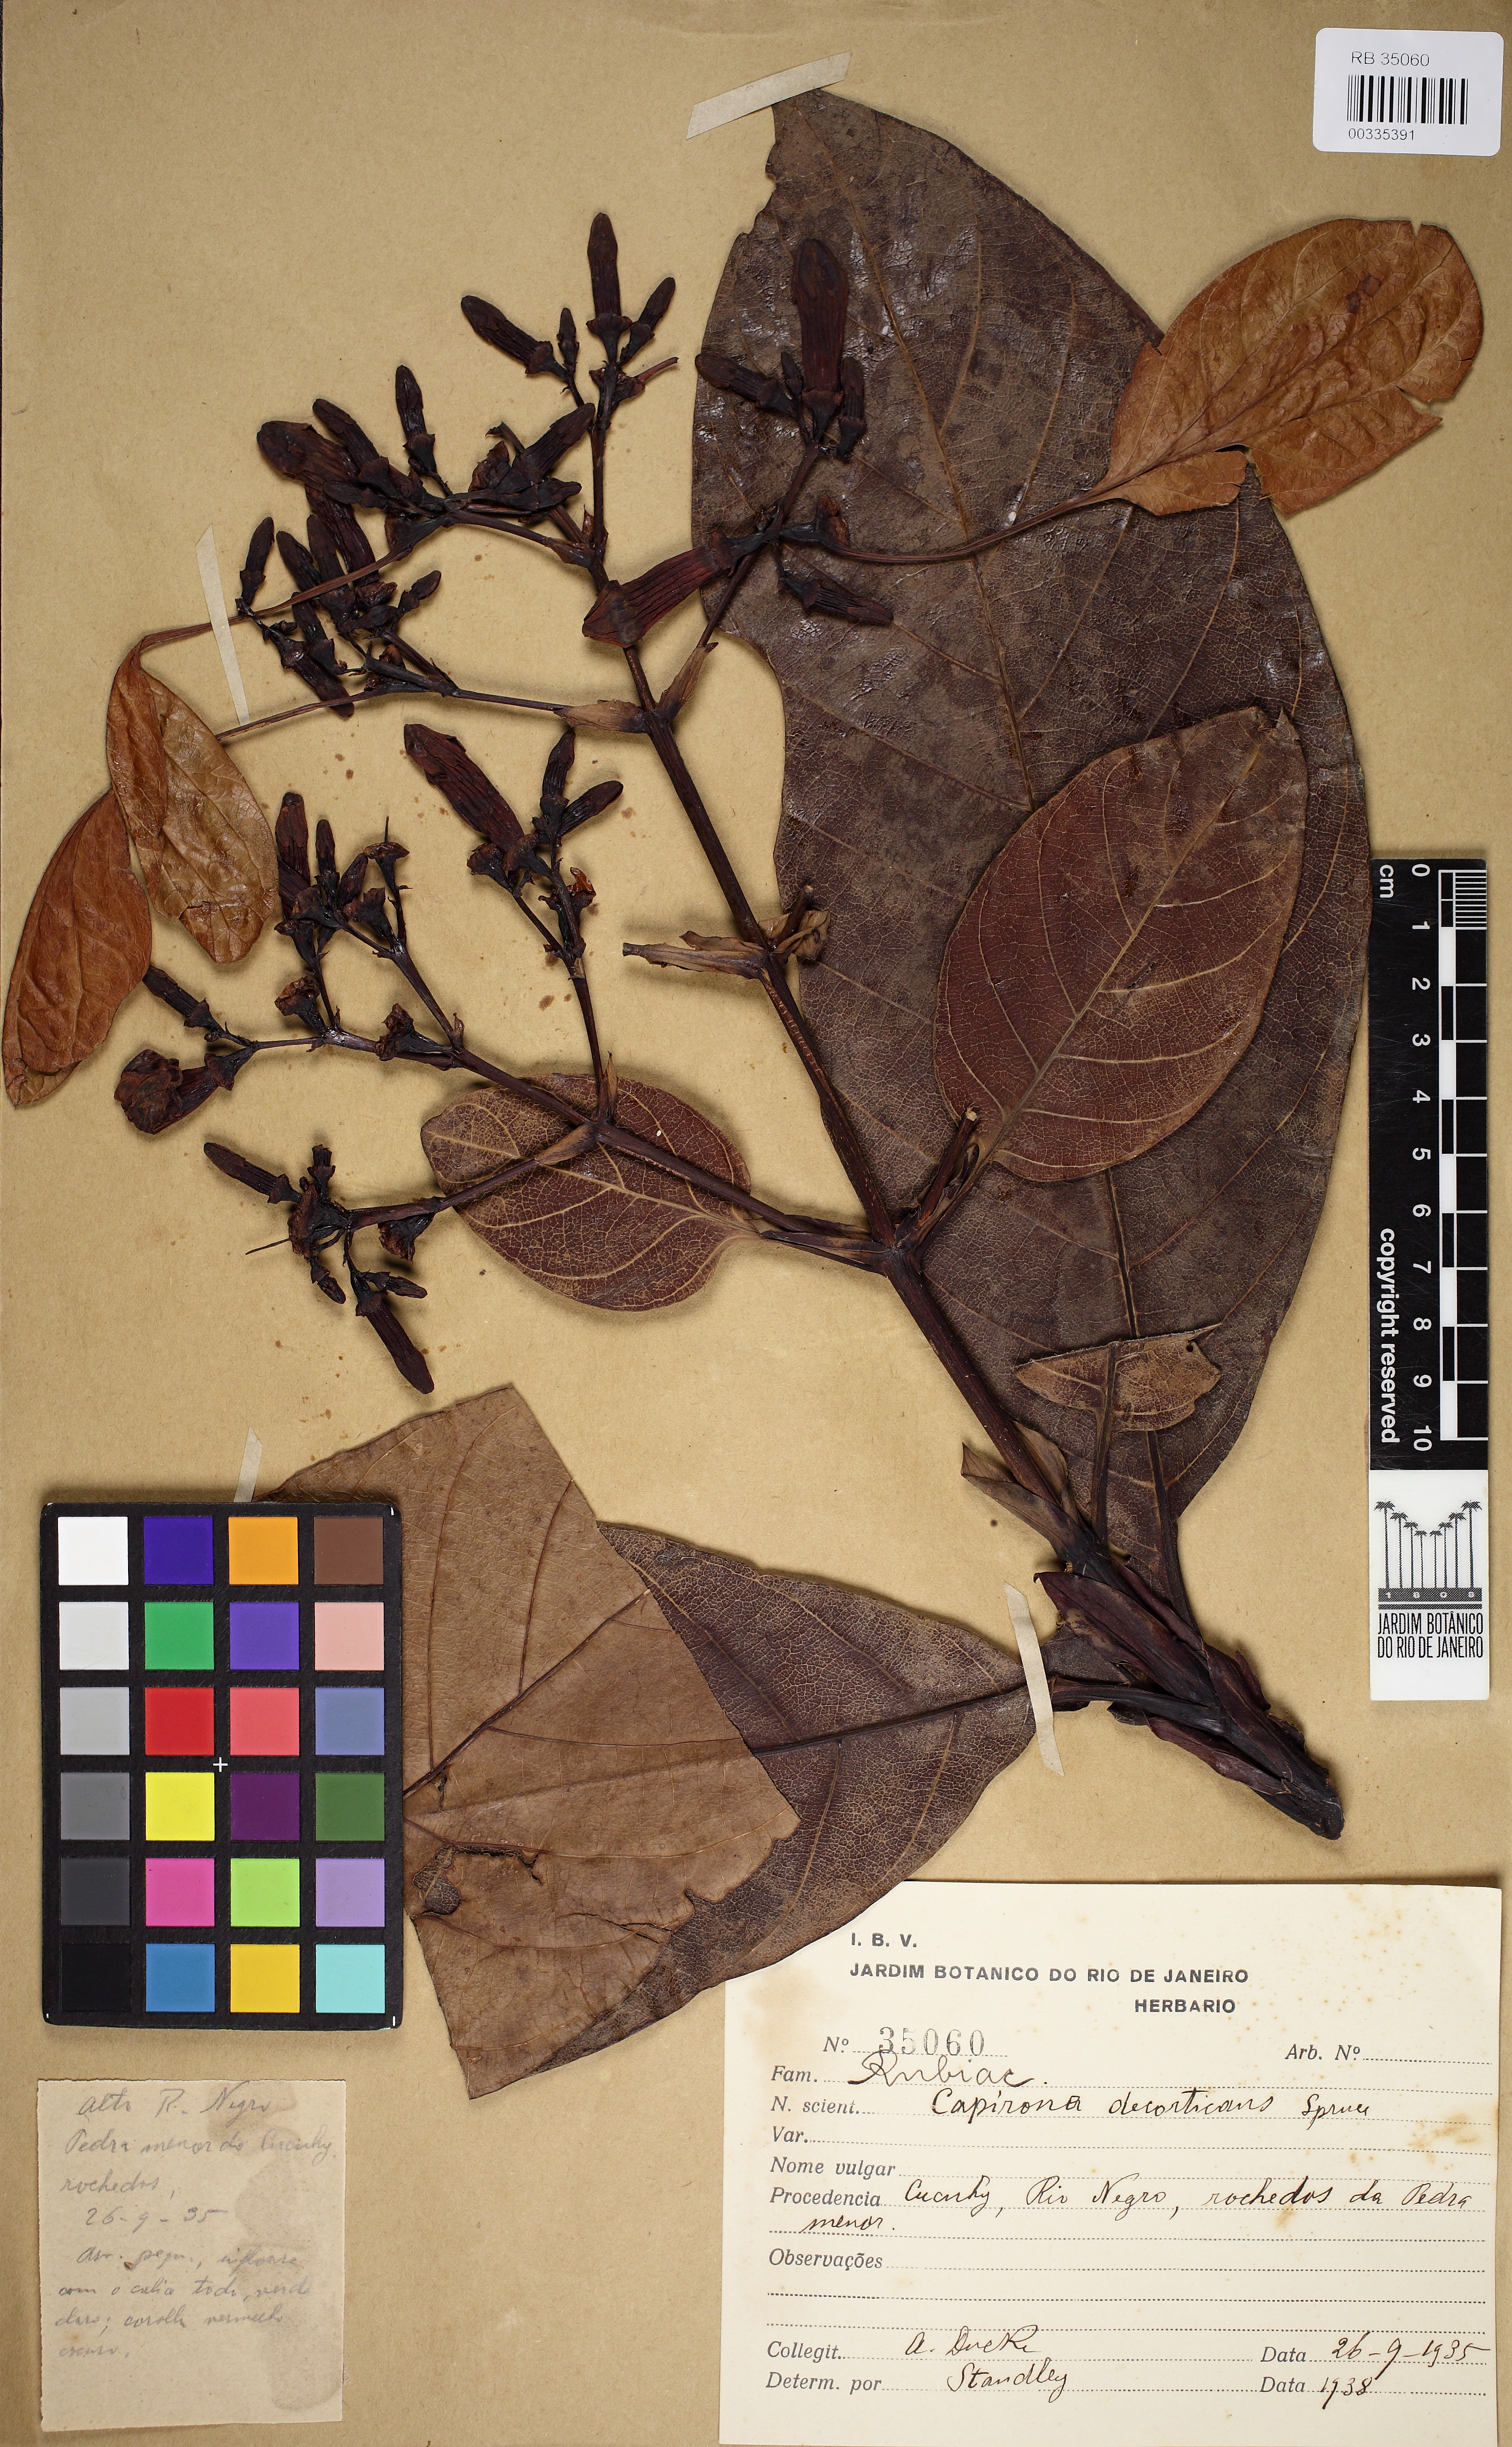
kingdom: Plantae
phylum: Tracheophyta
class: Magnoliopsida
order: Gentianales
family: Rubiaceae
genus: Capirona
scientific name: Capirona macrophylla
